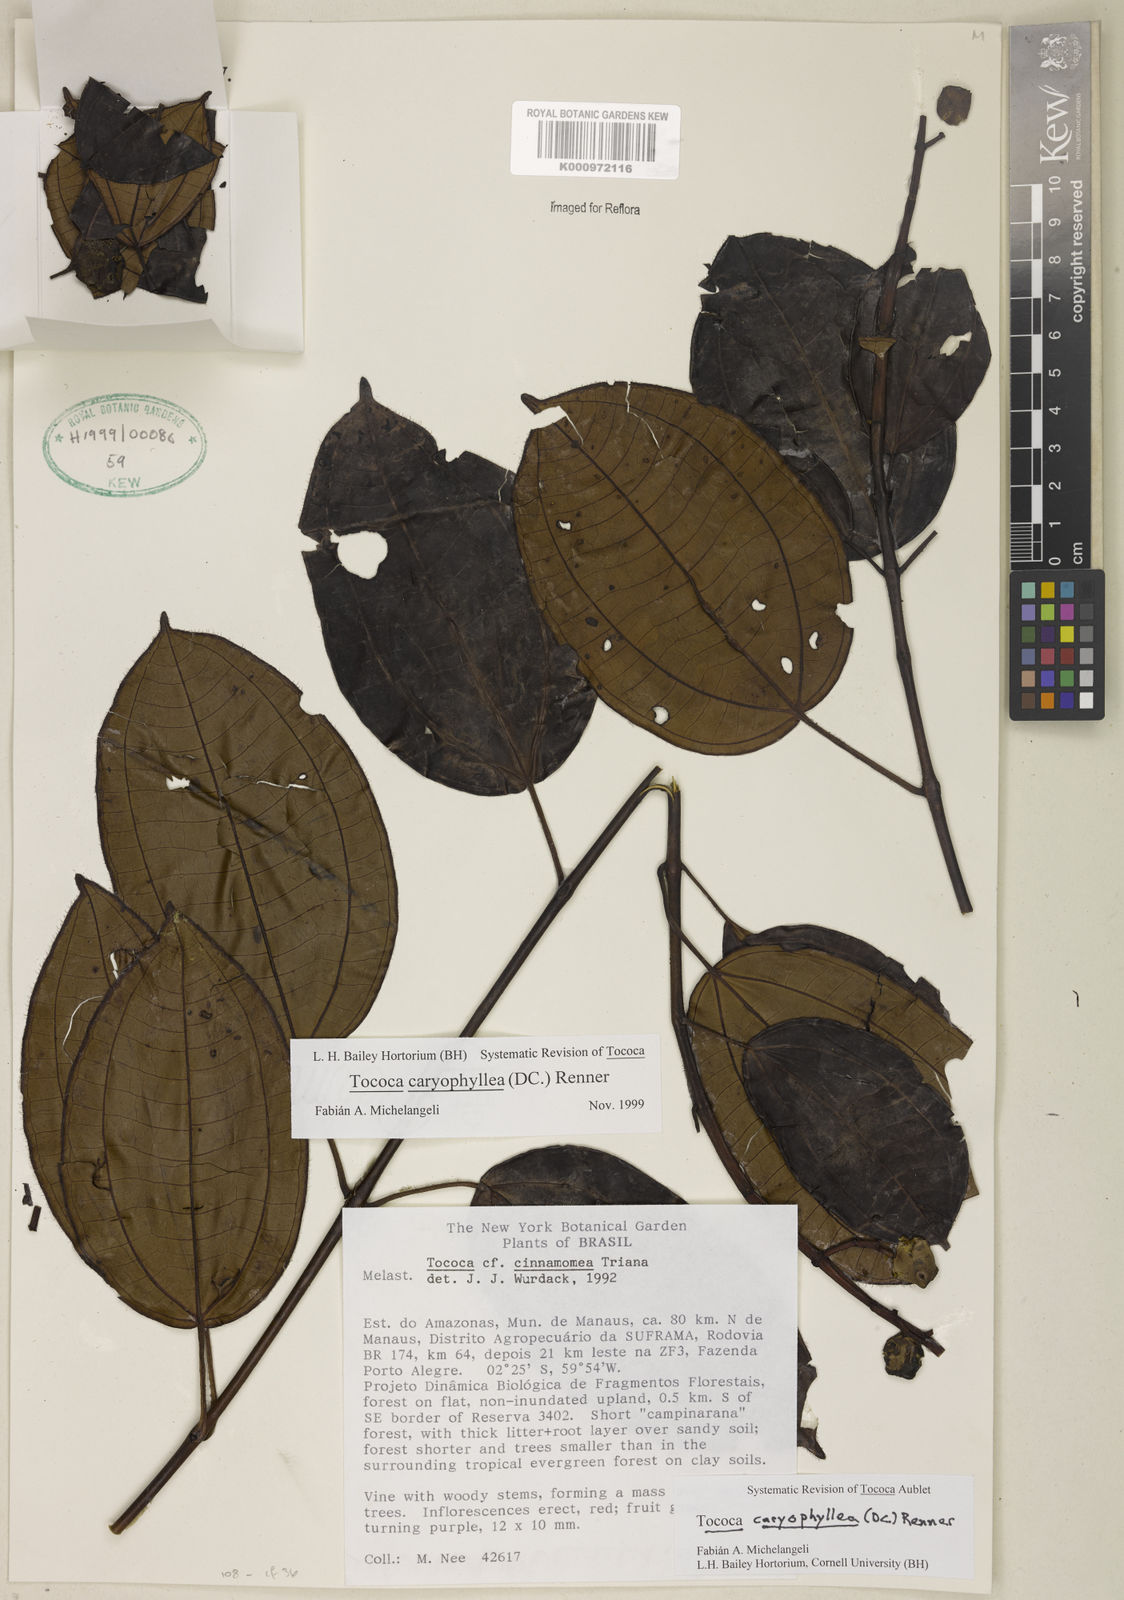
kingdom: Plantae
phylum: Tracheophyta
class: Magnoliopsida
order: Myrtales
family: Melastomataceae
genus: Miconia
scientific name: Miconia caryophyllacea
